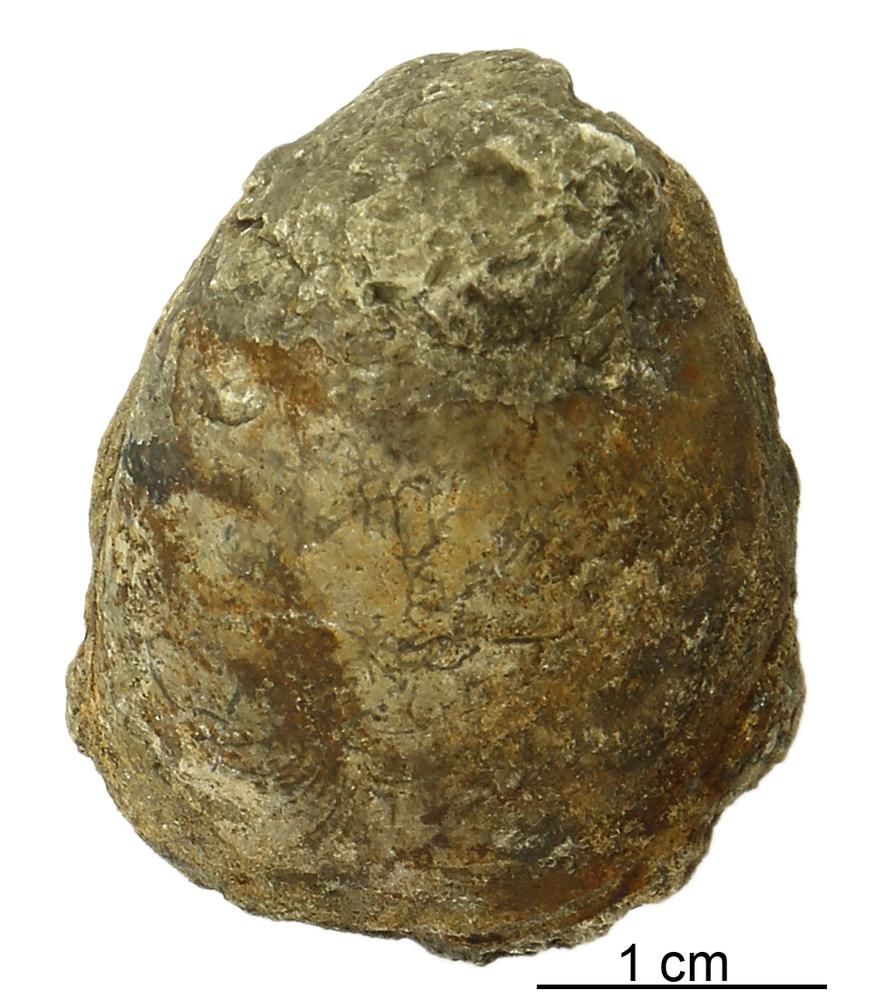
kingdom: Animalia
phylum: Mollusca
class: Bivalvia
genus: Veimarnella
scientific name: Veimarnella
